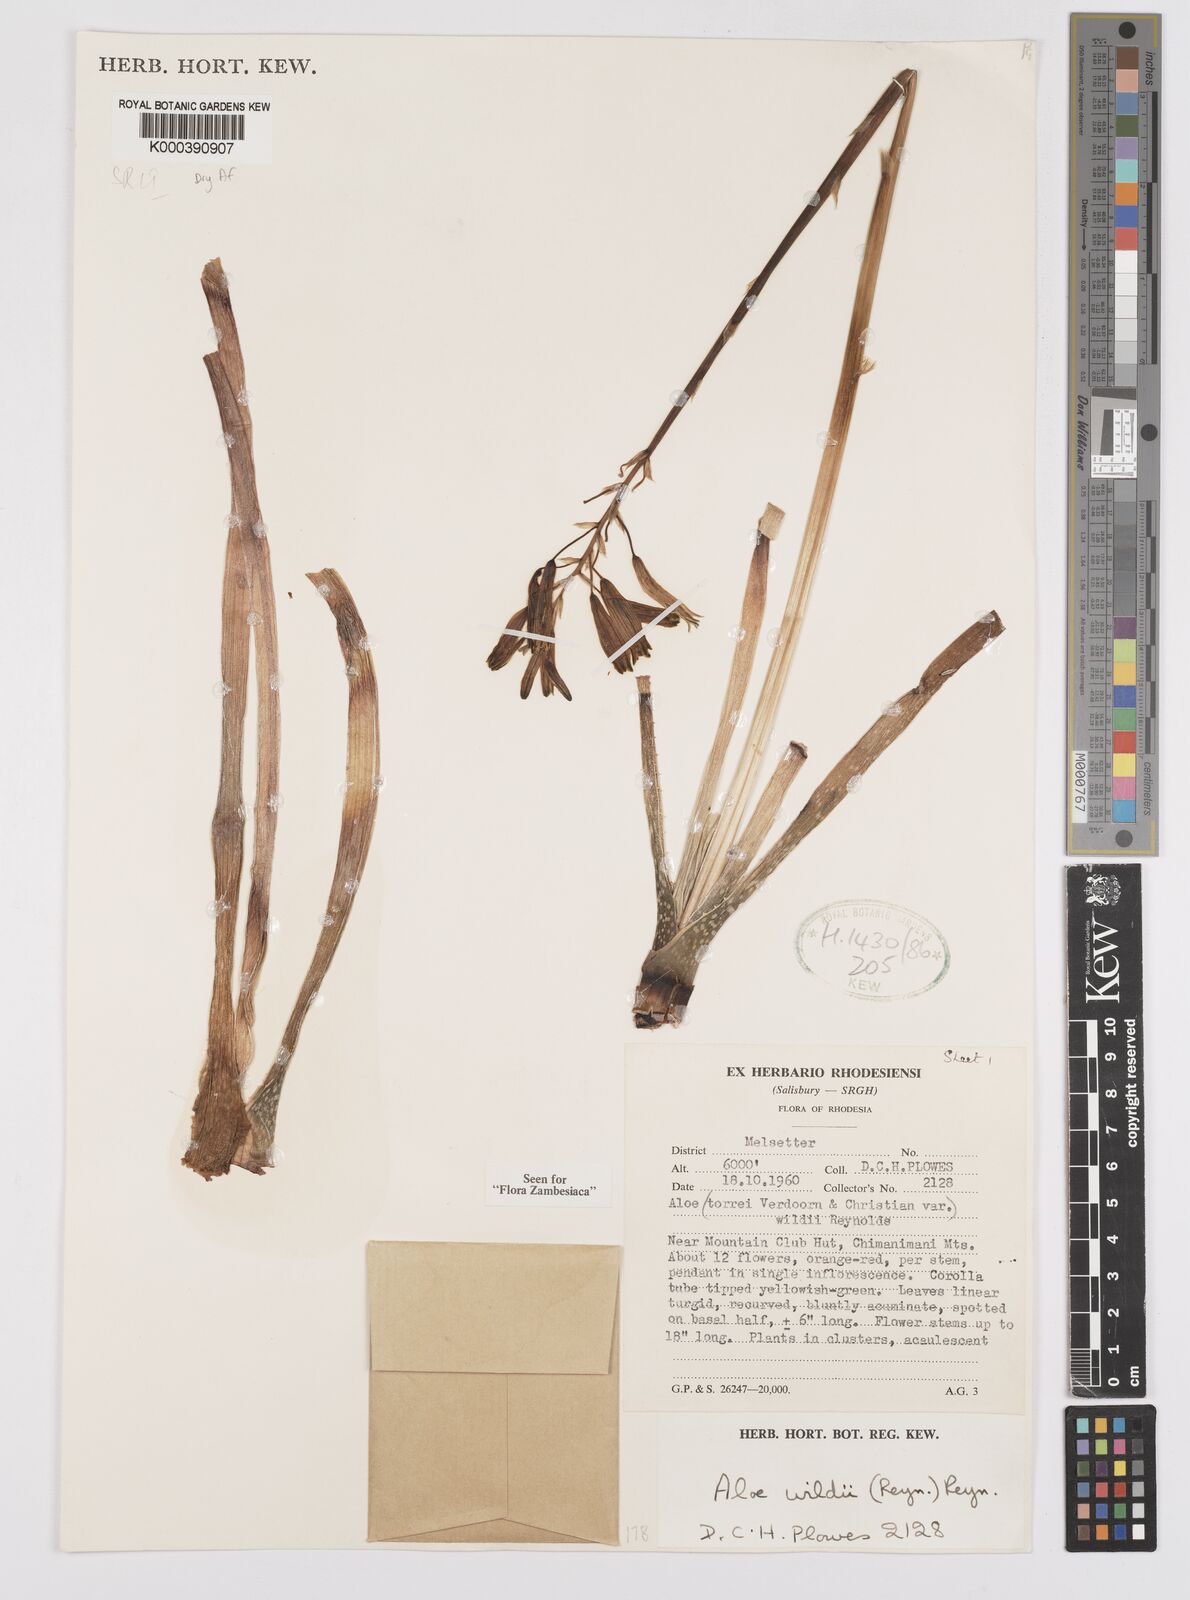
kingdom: Plantae
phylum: Tracheophyta
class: Liliopsida
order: Asparagales
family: Asphodelaceae
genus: Aloe
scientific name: Aloe wildii
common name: Wild's small chimanimani aloe
